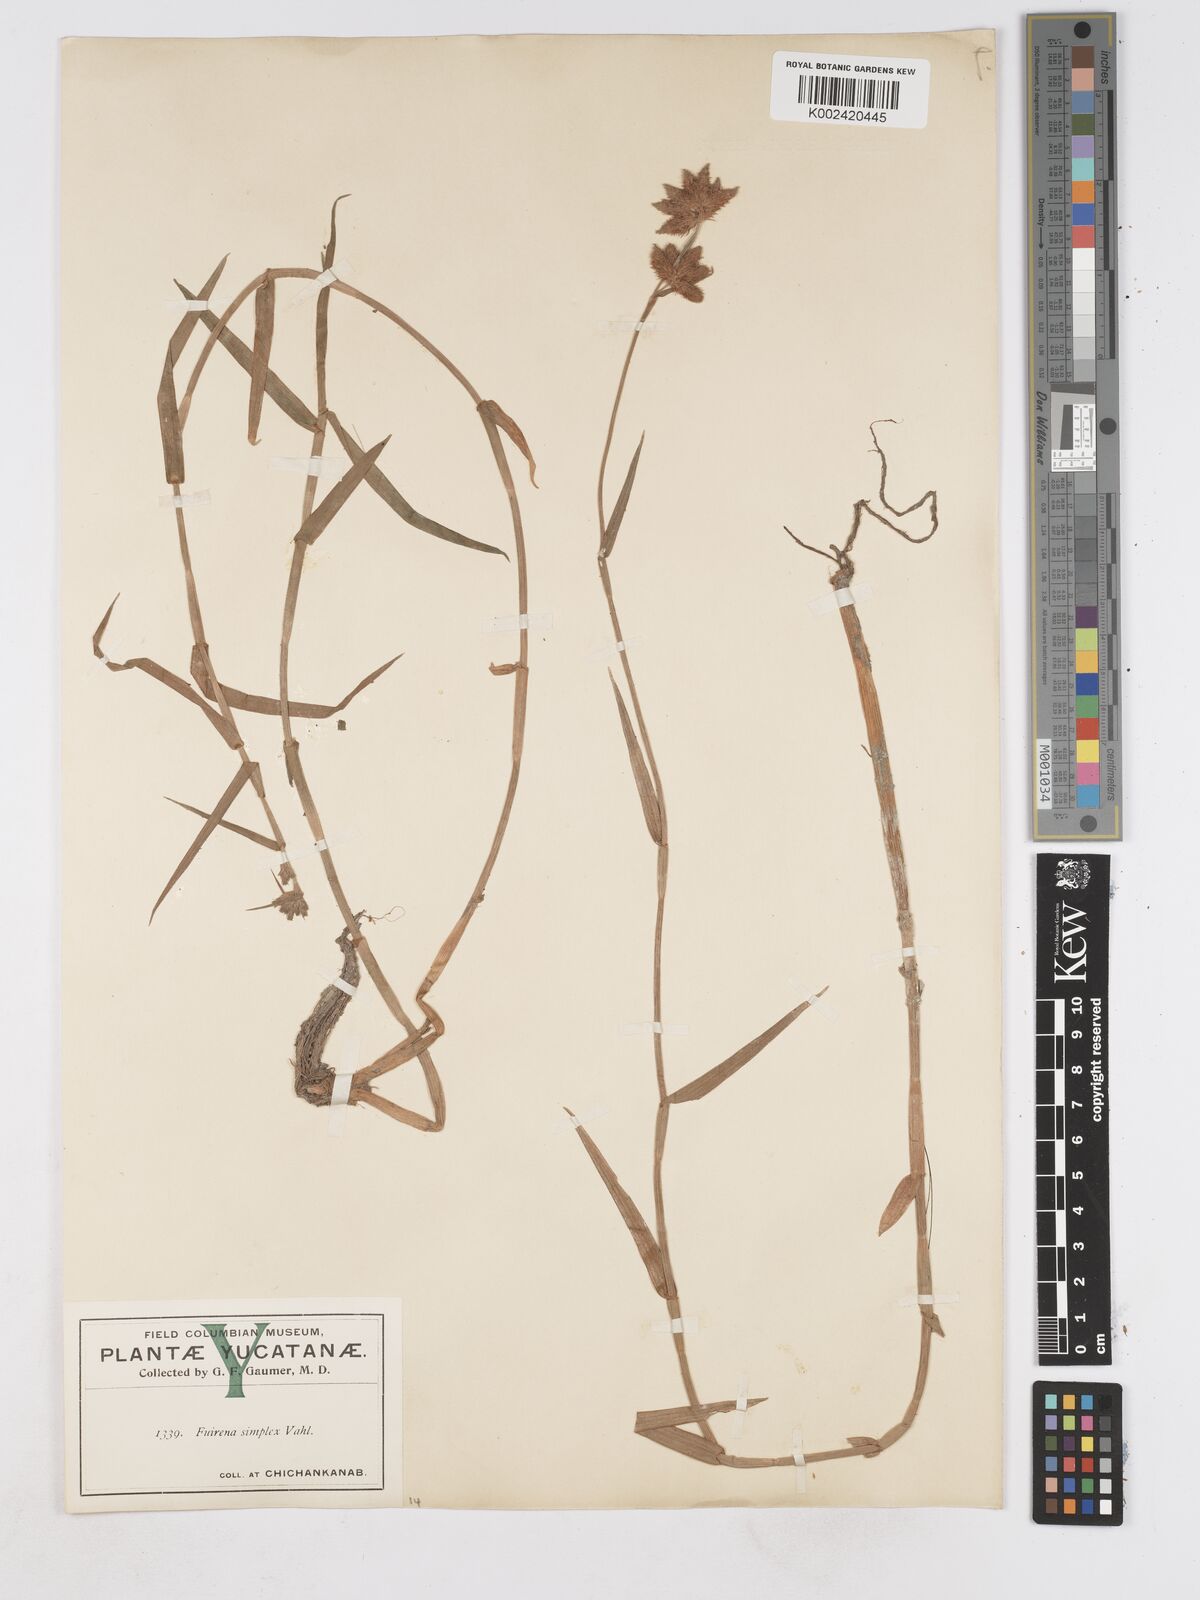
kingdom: Plantae
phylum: Tracheophyta
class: Liliopsida
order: Poales
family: Cyperaceae
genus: Fuirena
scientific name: Fuirena simplex
